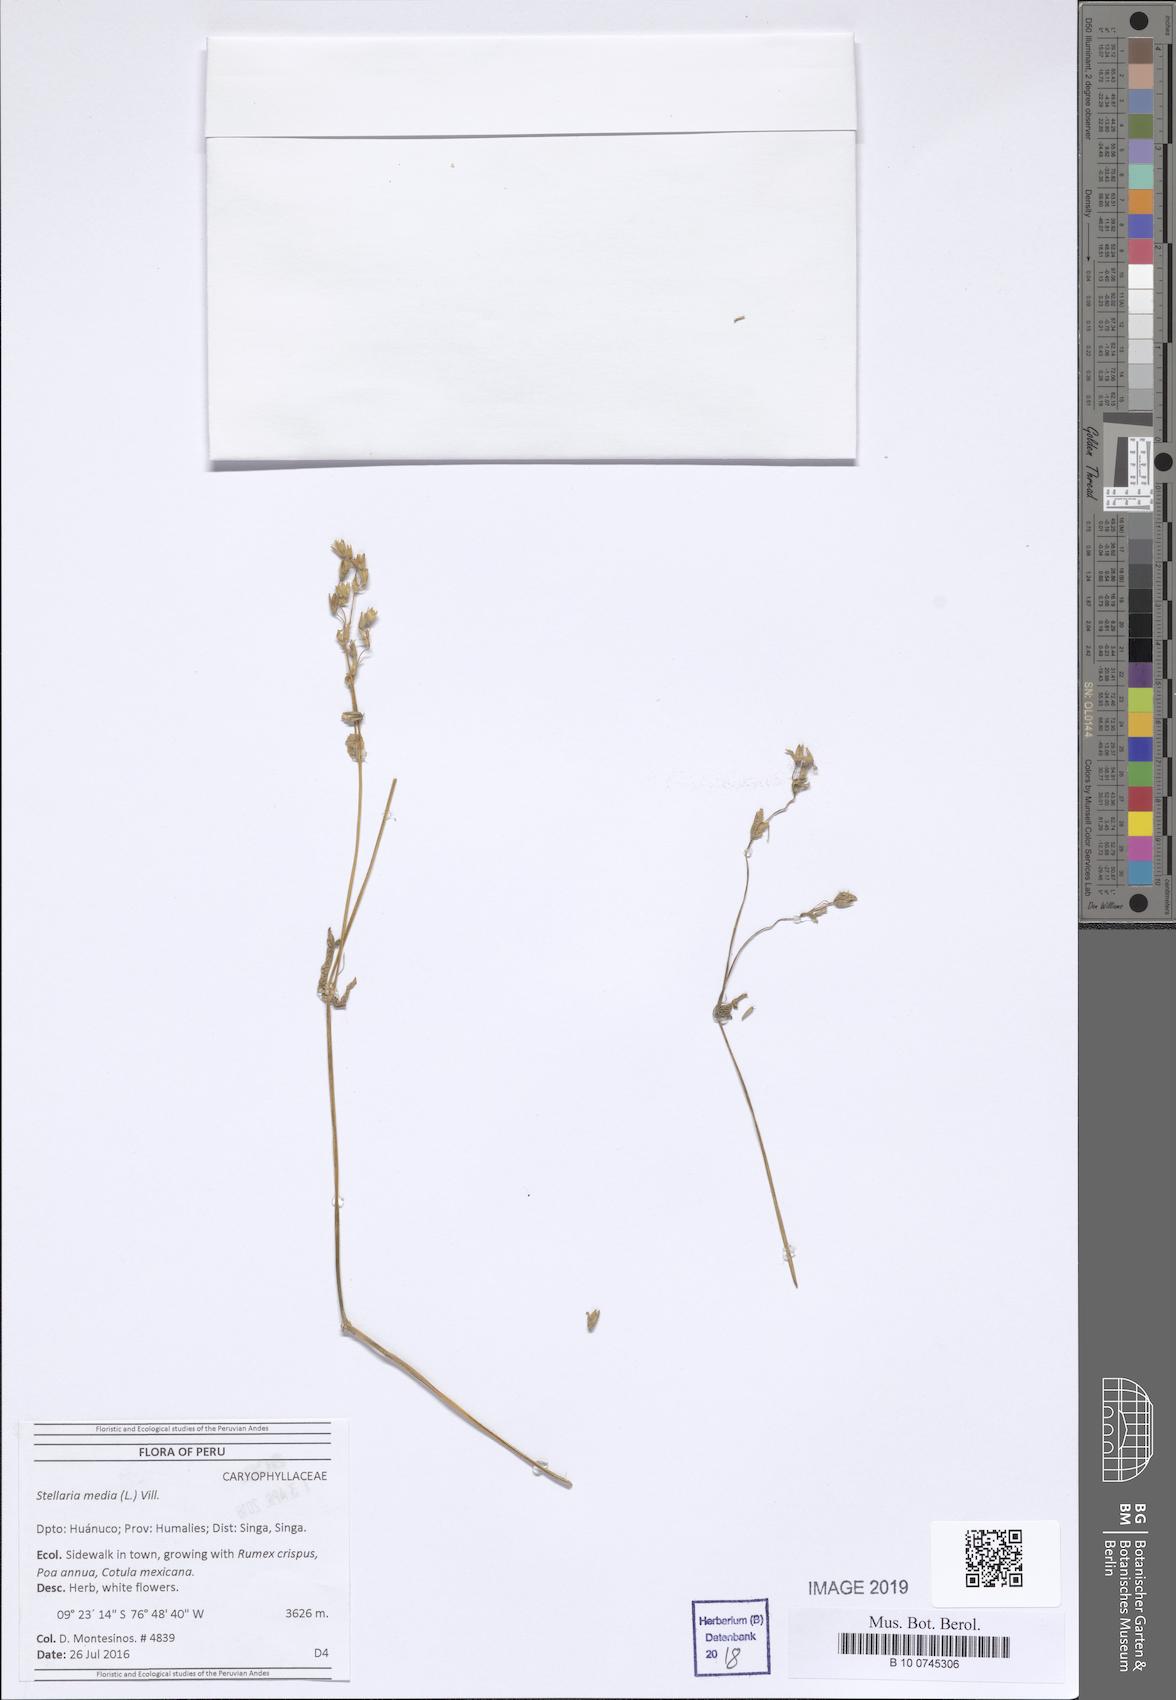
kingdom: Plantae
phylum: Tracheophyta
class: Magnoliopsida
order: Caryophyllales
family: Caryophyllaceae
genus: Stellaria
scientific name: Stellaria media
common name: Common chickweed
